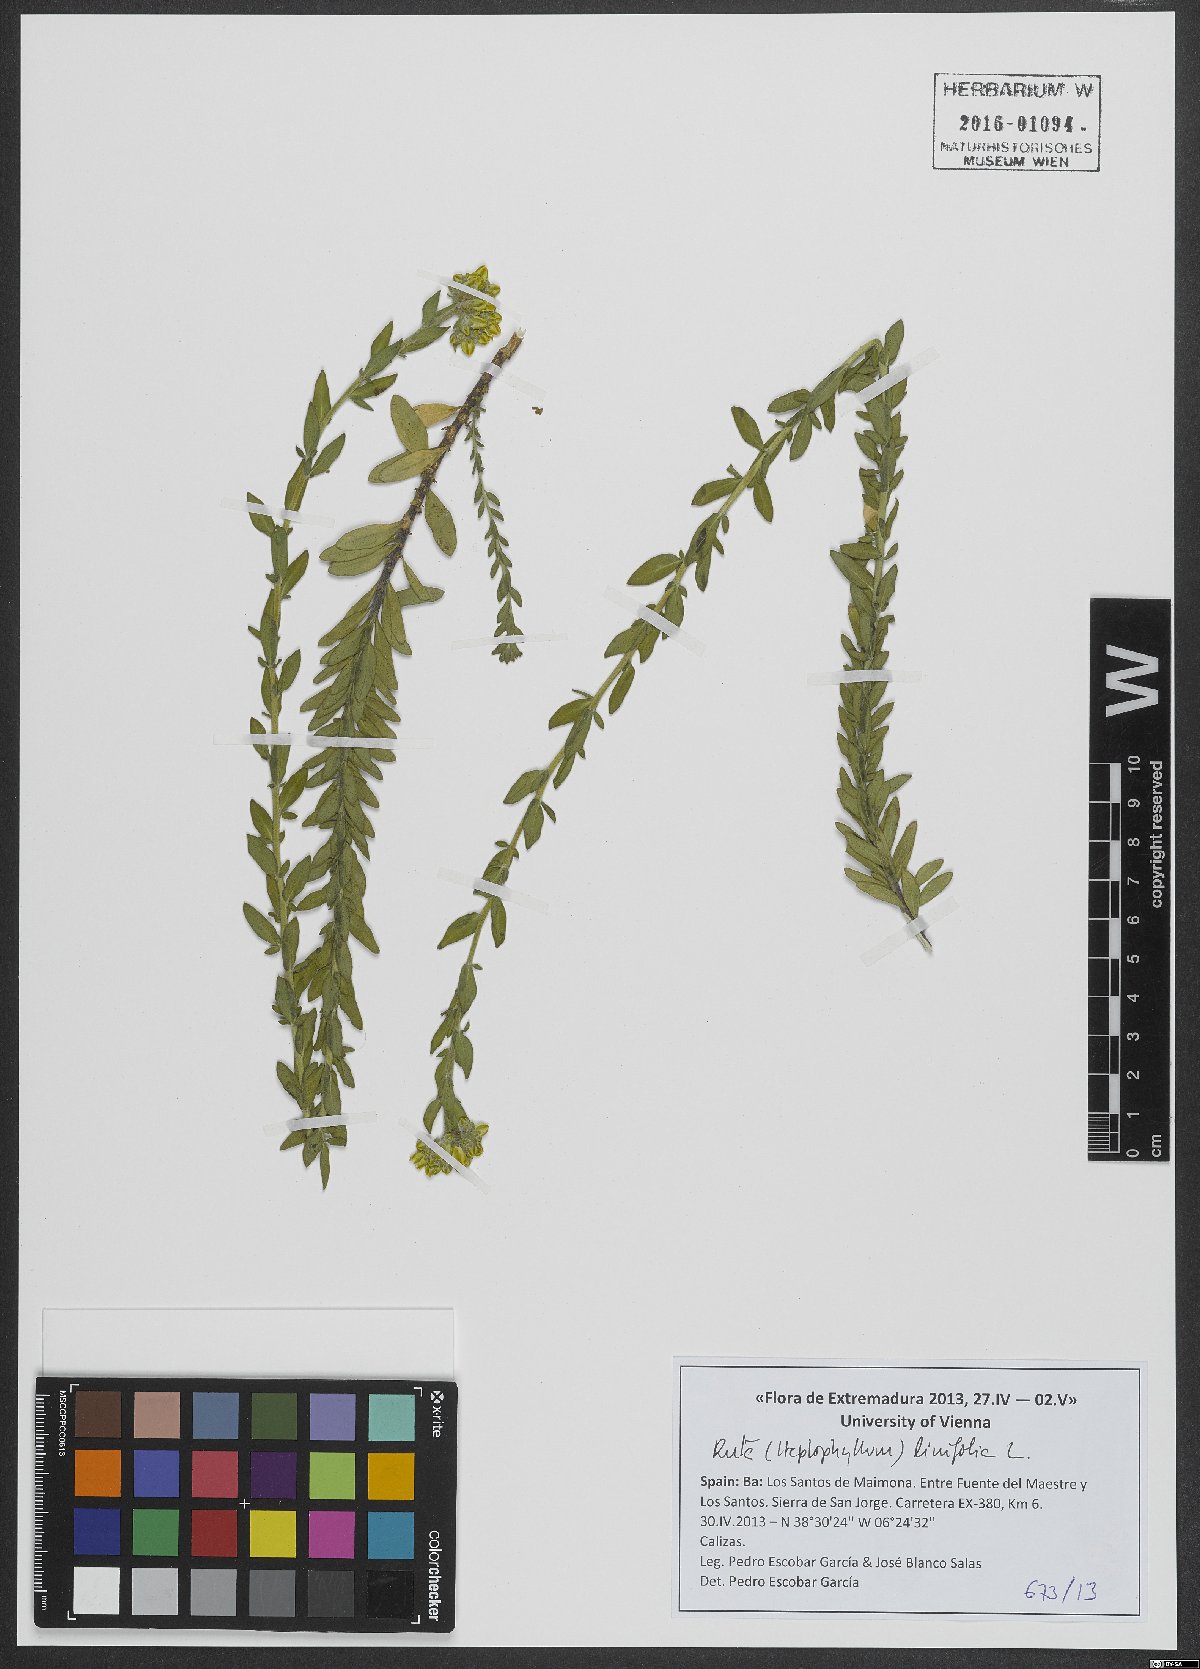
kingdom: Plantae
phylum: Tracheophyta
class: Magnoliopsida
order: Sapindales
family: Rutaceae
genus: Haplophyllum
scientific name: Haplophyllum linifolium
